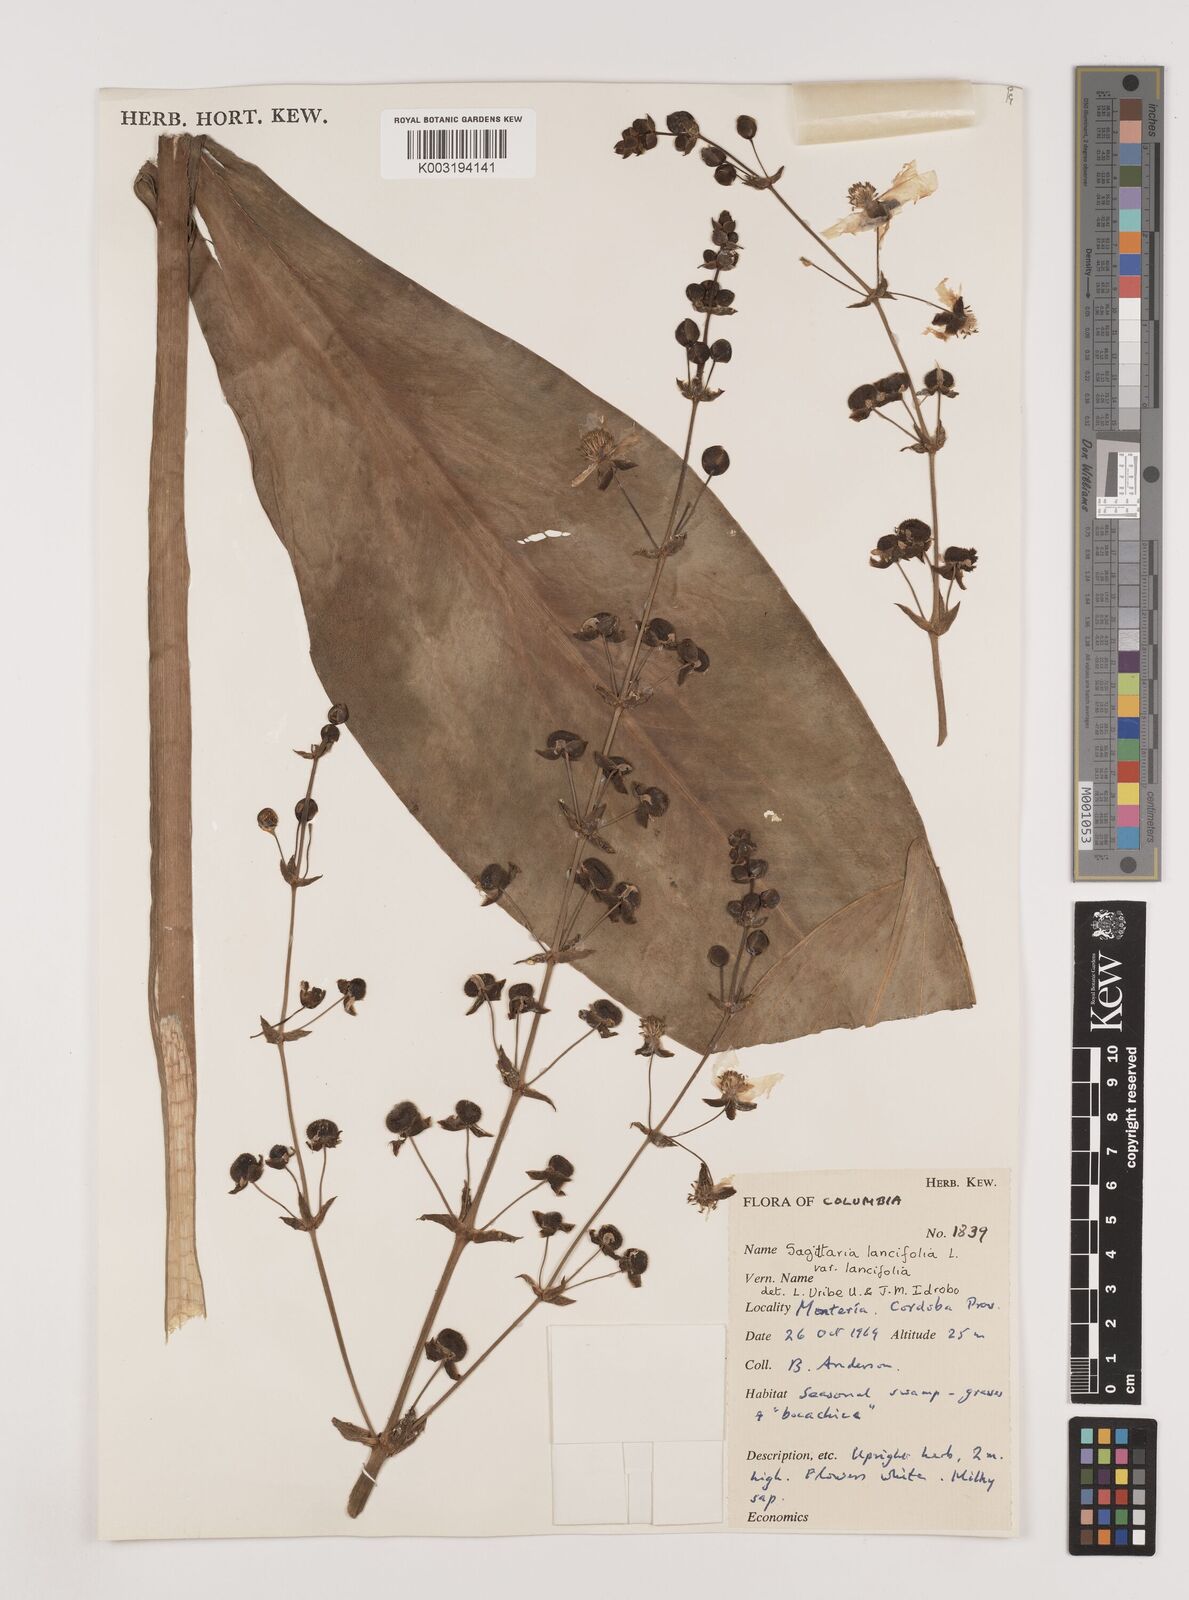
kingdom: Plantae
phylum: Tracheophyta
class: Liliopsida
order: Alismatales
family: Alismataceae
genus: Sagittaria
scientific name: Sagittaria lancifolia
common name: Lance-leaf arrowhead
